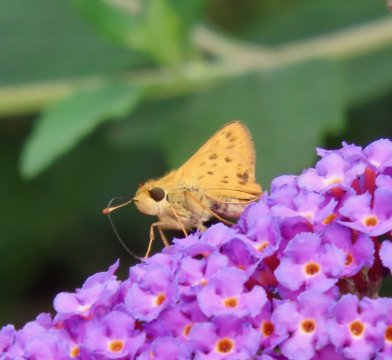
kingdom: Animalia
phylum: Arthropoda
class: Insecta
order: Lepidoptera
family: Hesperiidae
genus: Hylephila
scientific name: Hylephila phyleus
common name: Fiery Skipper
